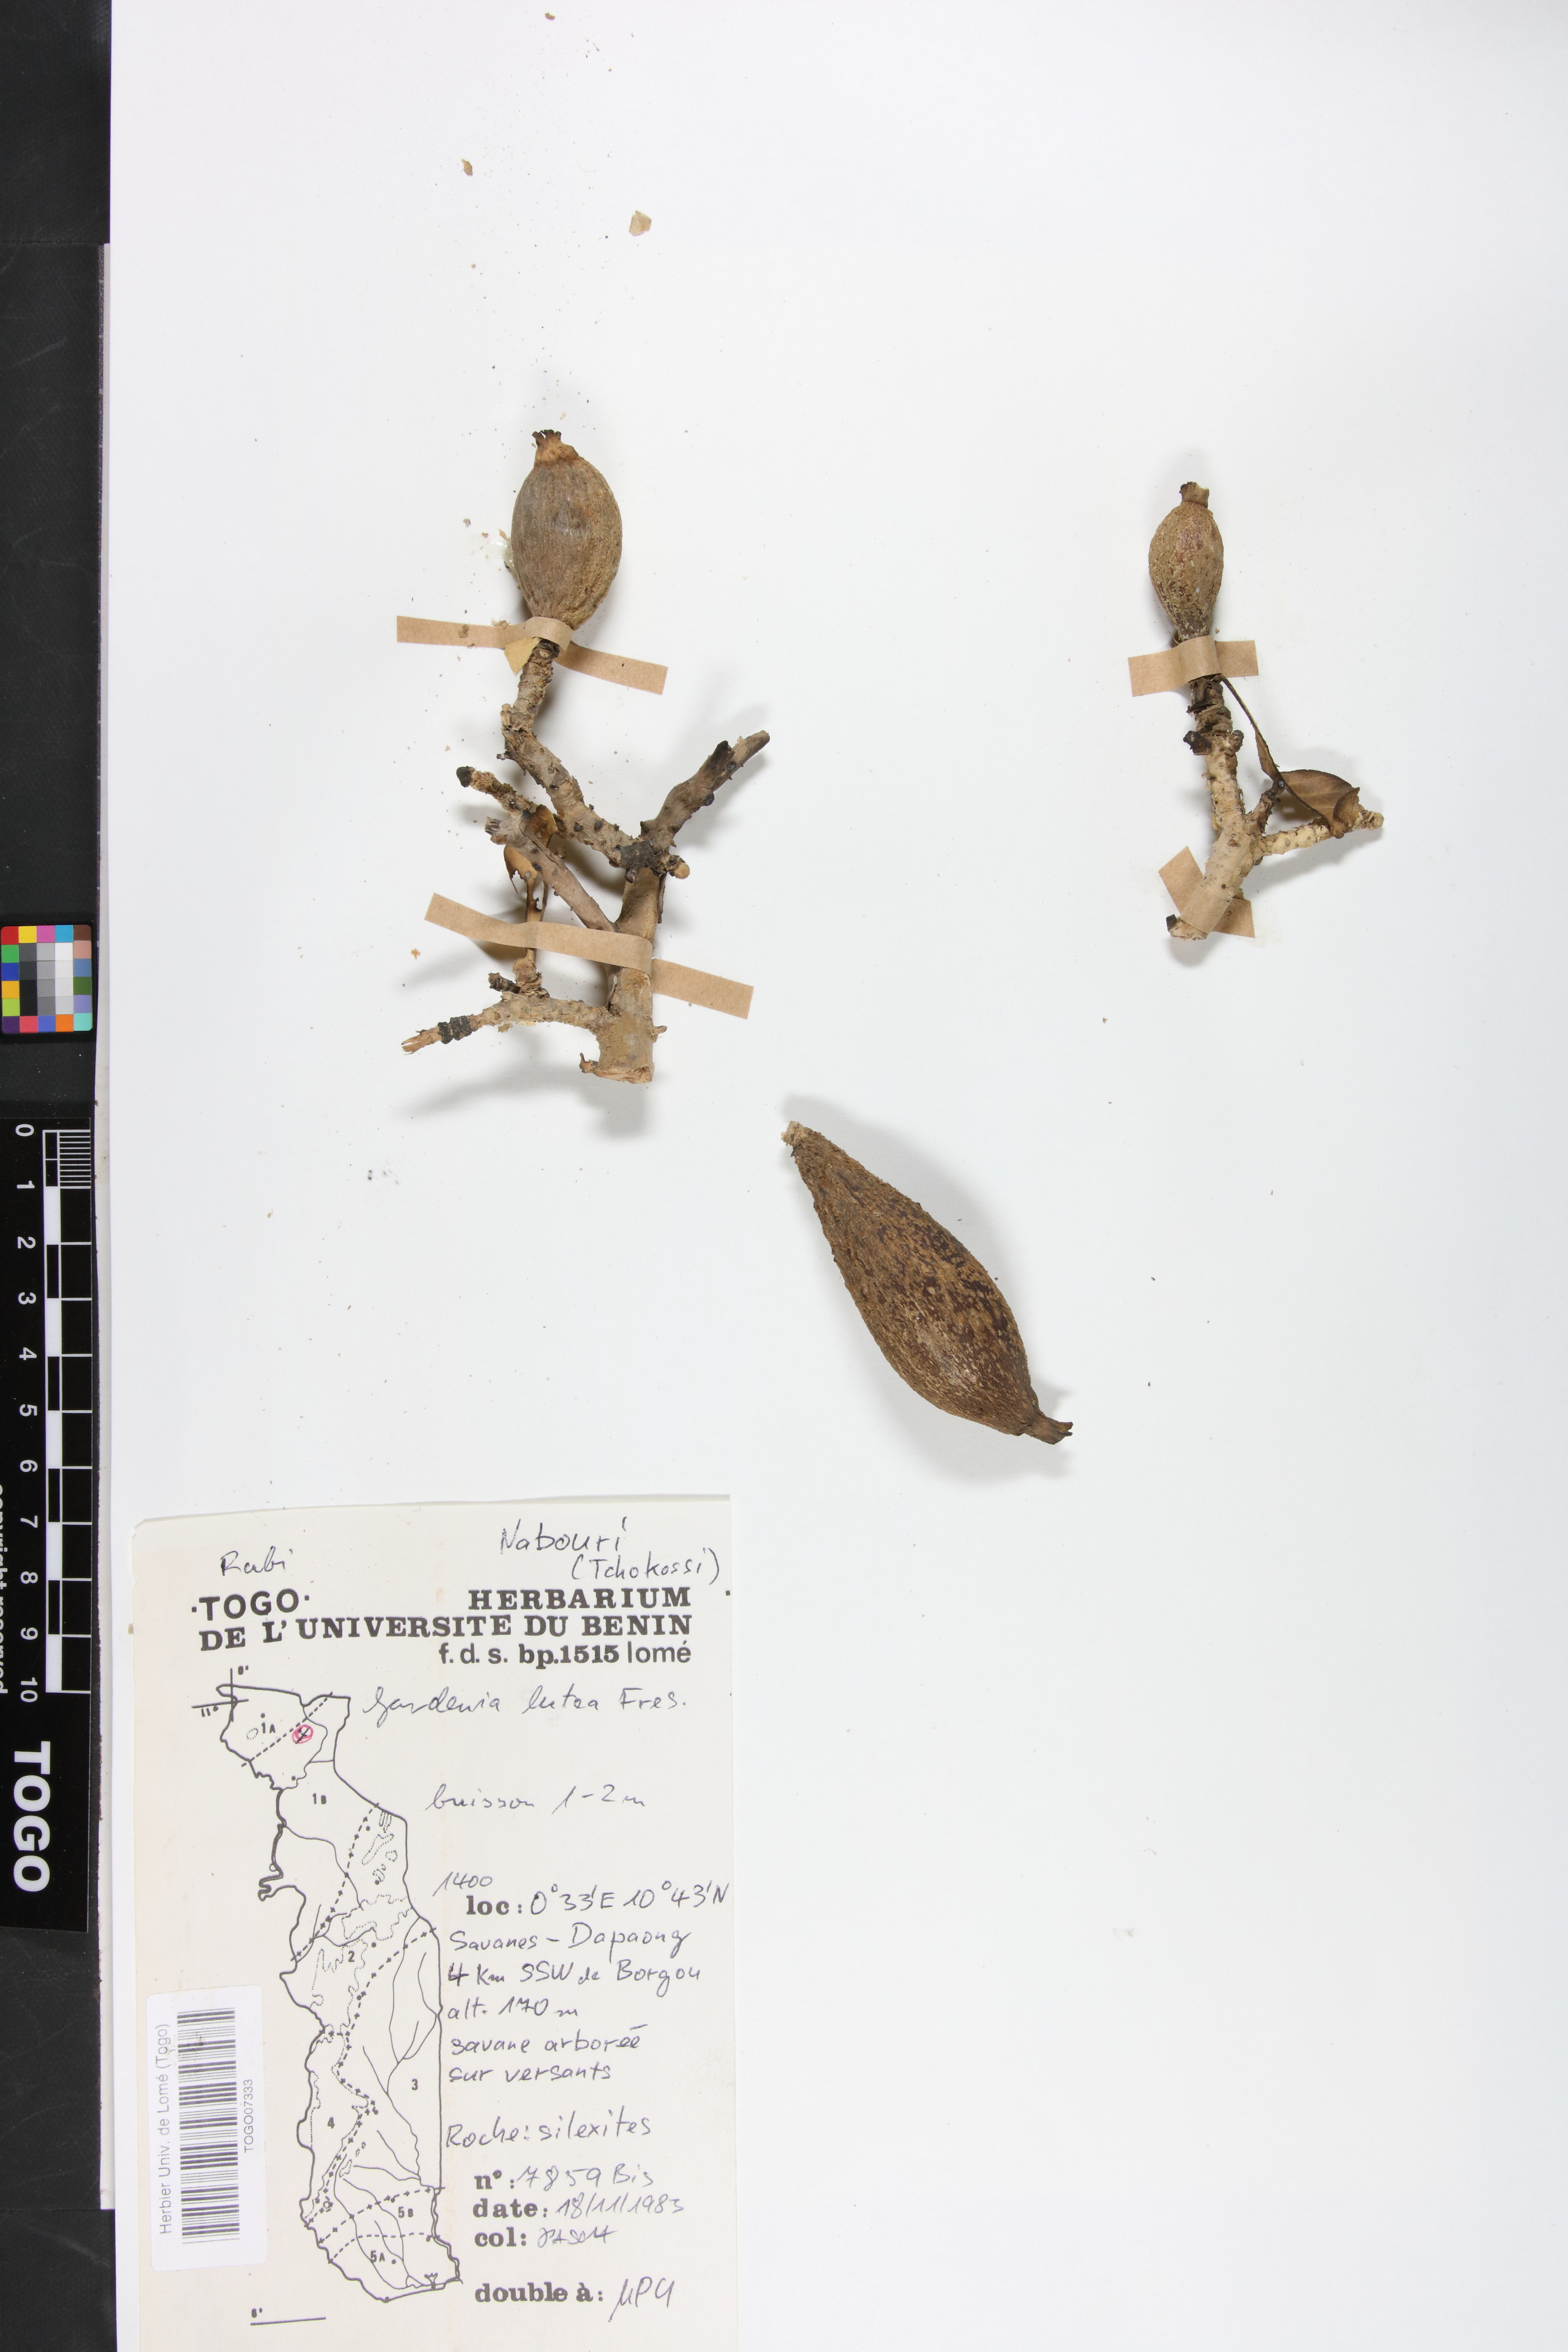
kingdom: Plantae
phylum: Tracheophyta
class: Magnoliopsida
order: Gentianales
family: Rubiaceae
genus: Gardenia
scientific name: Gardenia ternifolia
